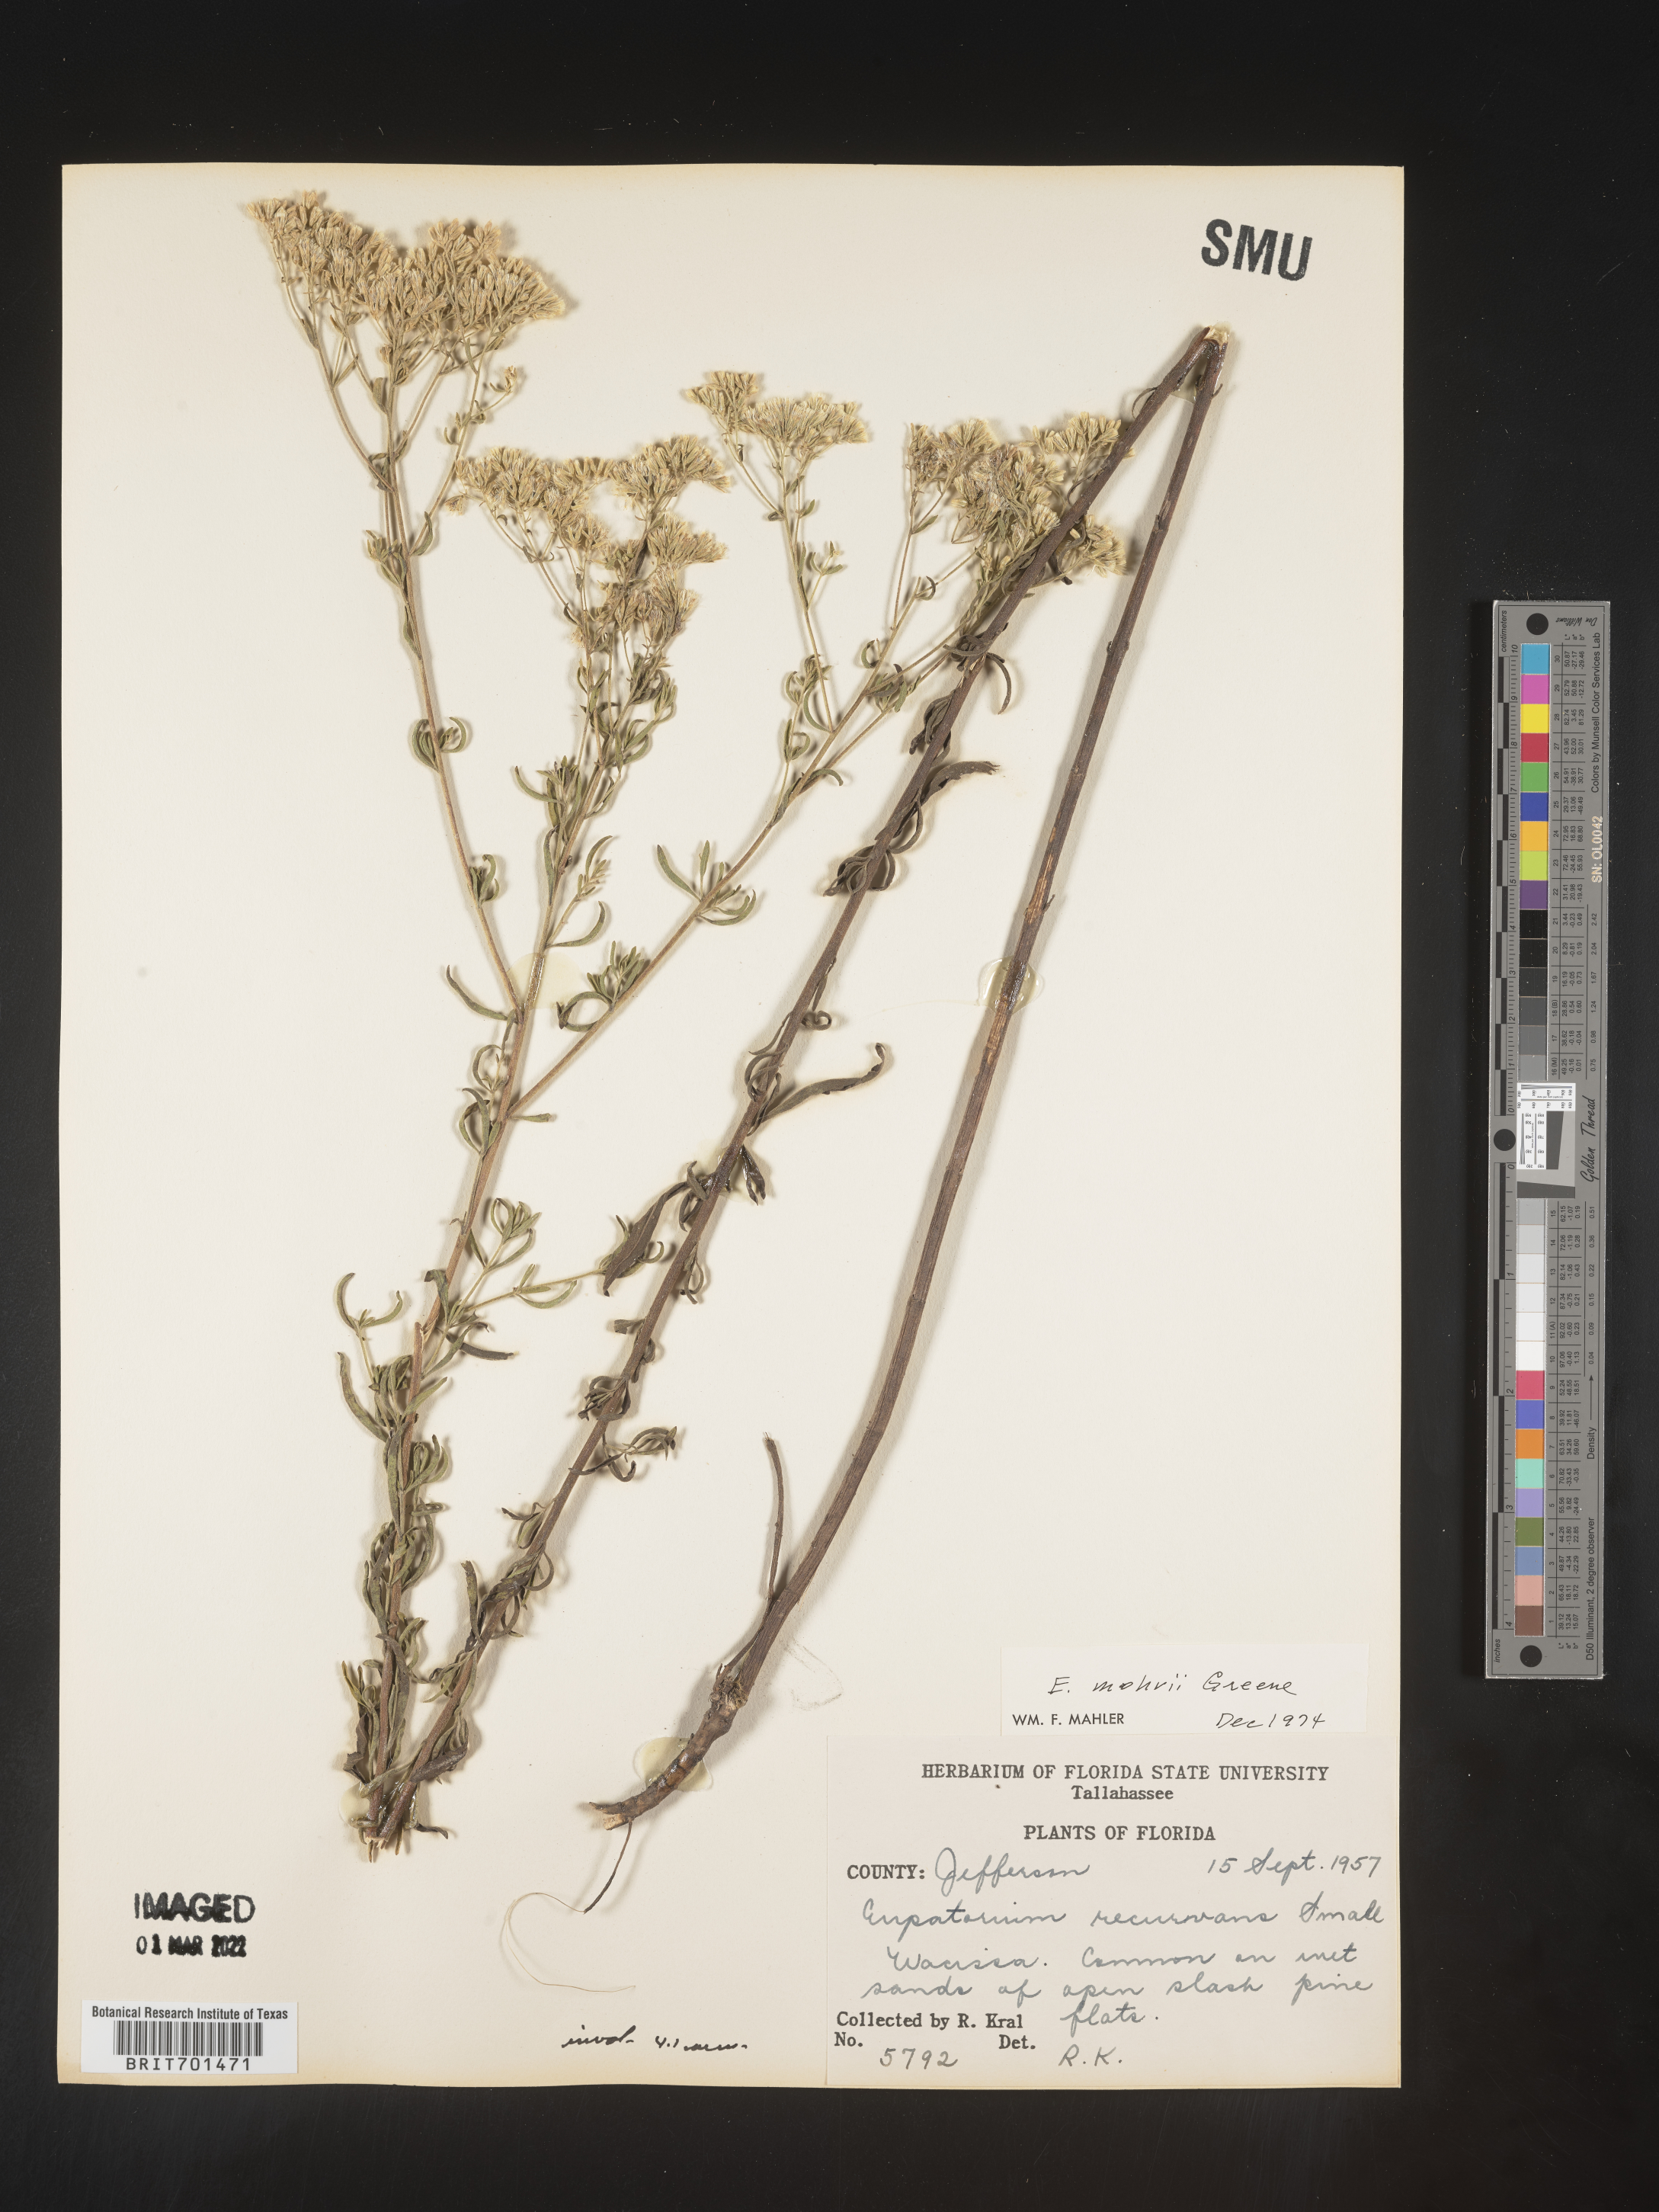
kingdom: Plantae
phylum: Tracheophyta
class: Magnoliopsida
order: Asterales
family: Asteraceae
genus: Eupatorium
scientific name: Eupatorium mohrii
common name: Mohr's thoroughwort
